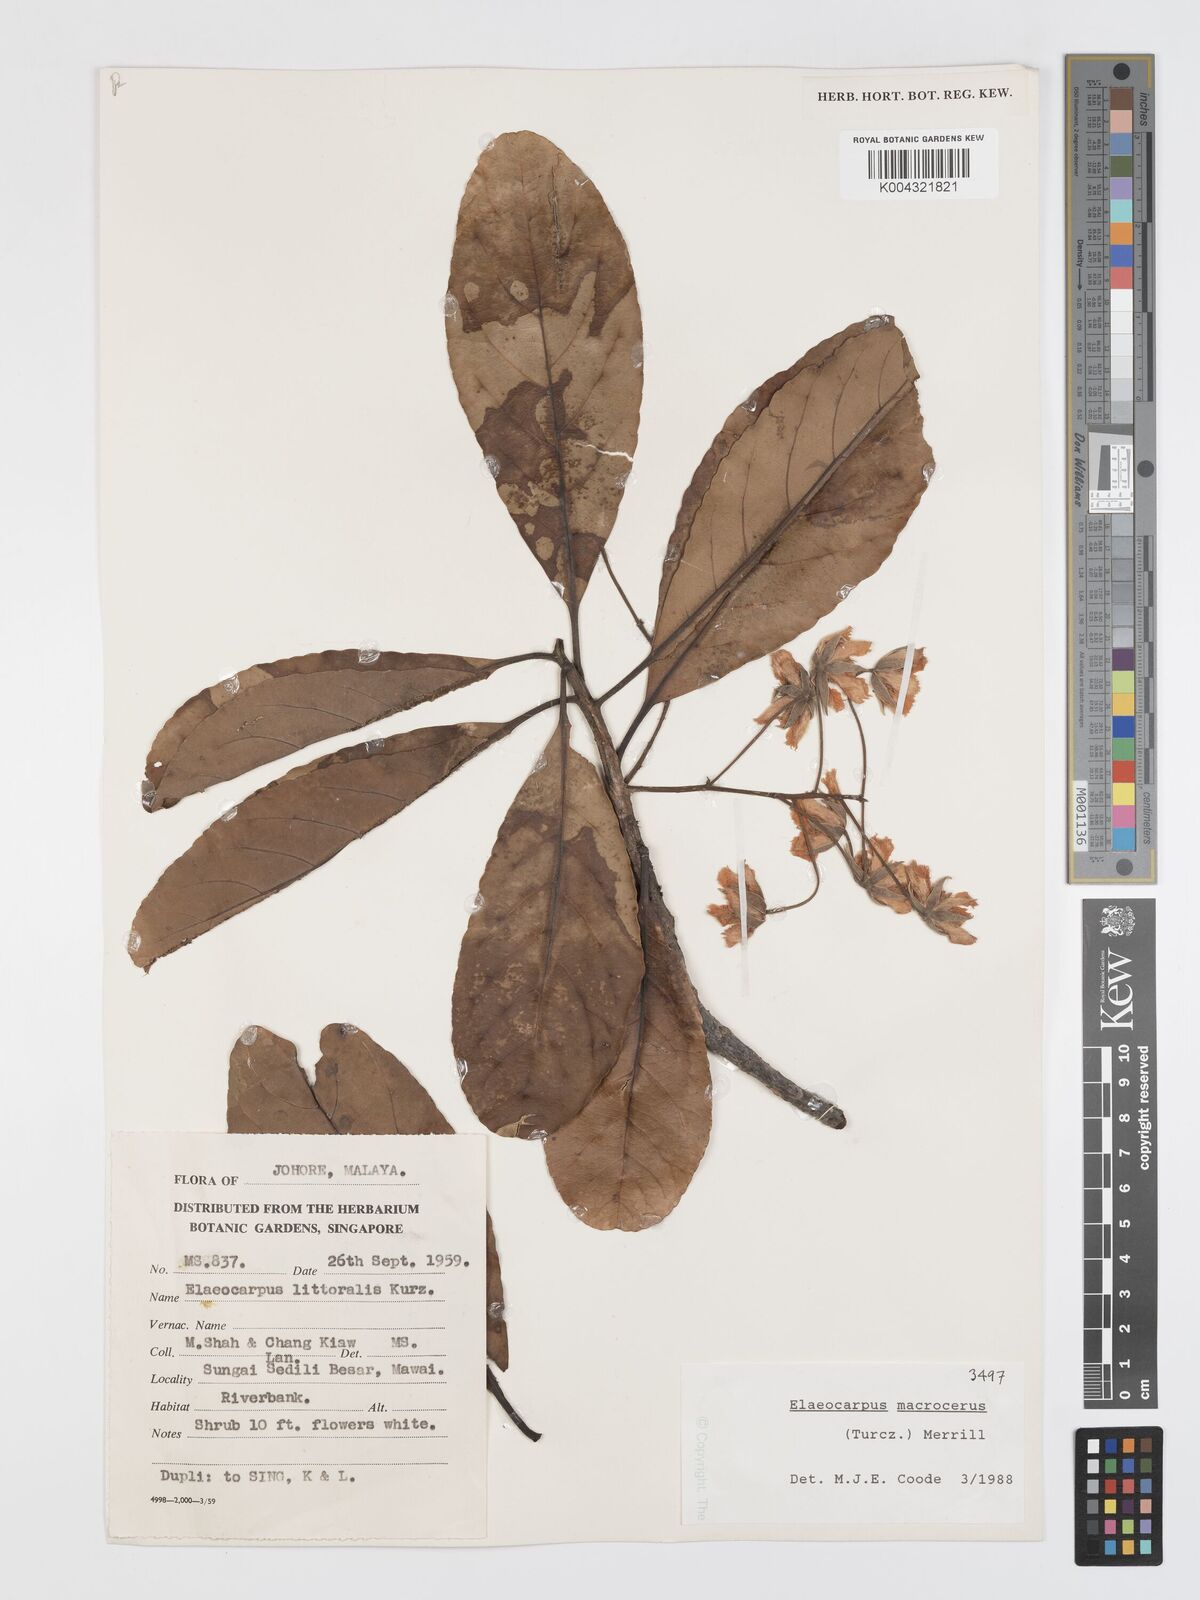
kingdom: Plantae
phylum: Tracheophyta
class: Magnoliopsida
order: Oxalidales
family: Elaeocarpaceae
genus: Elaeocarpus
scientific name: Elaeocarpus macrocerus
